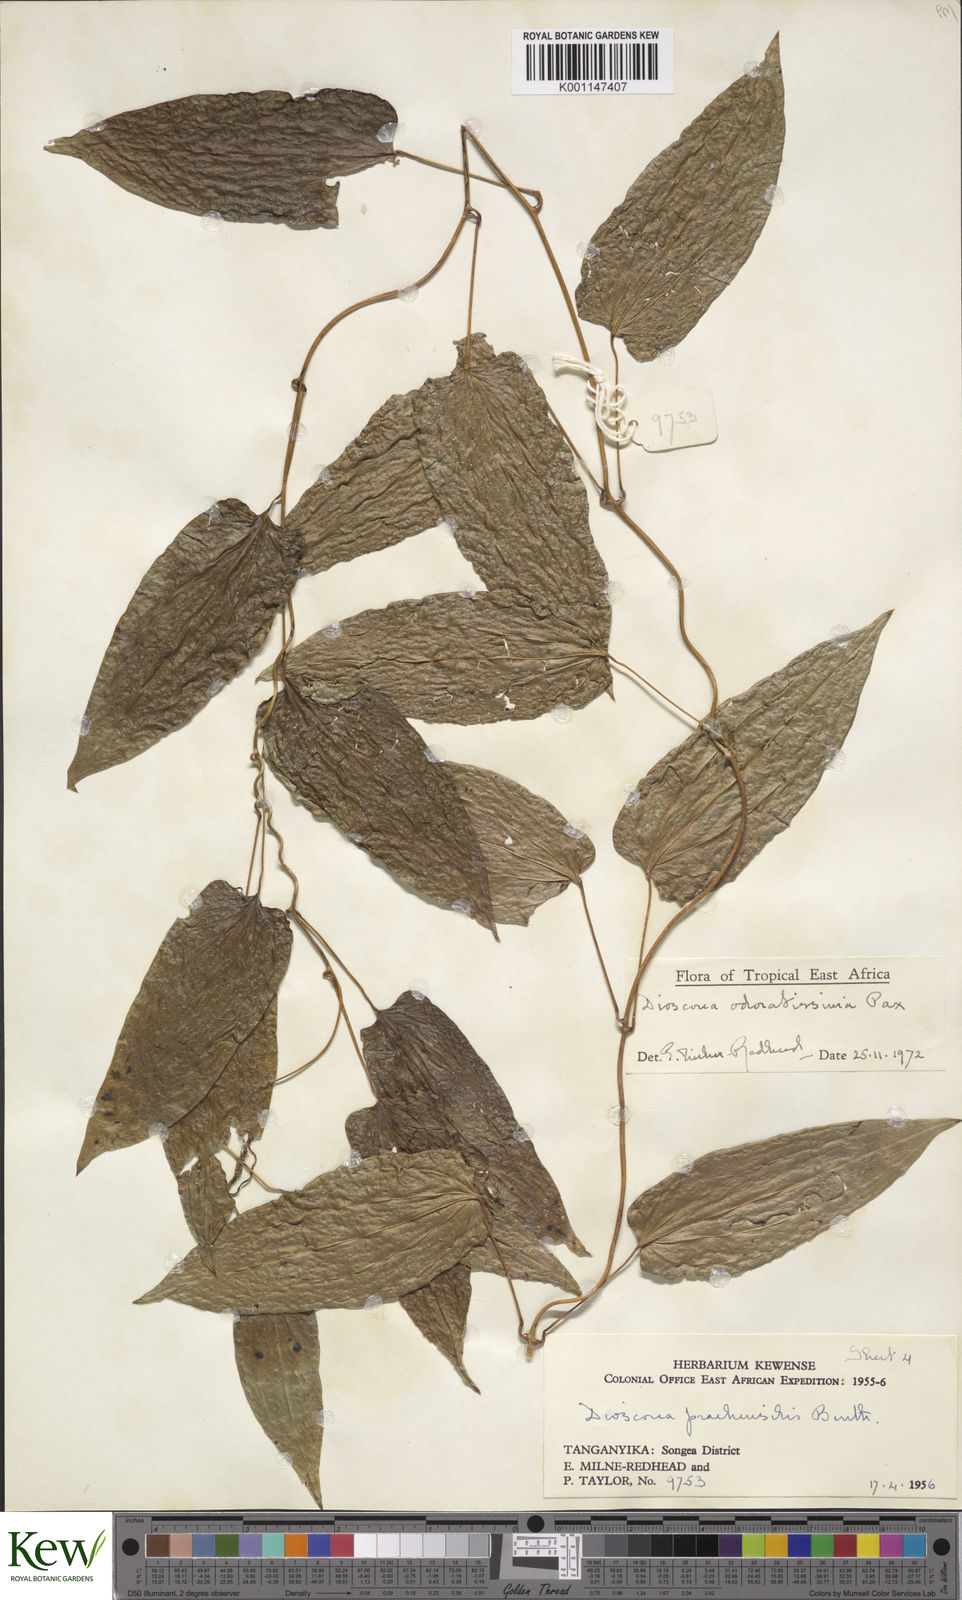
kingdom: Plantae
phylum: Tracheophyta
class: Liliopsida
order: Dioscoreales
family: Dioscoreaceae
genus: Dioscorea
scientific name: Dioscorea praehensilis
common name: Bush yam
